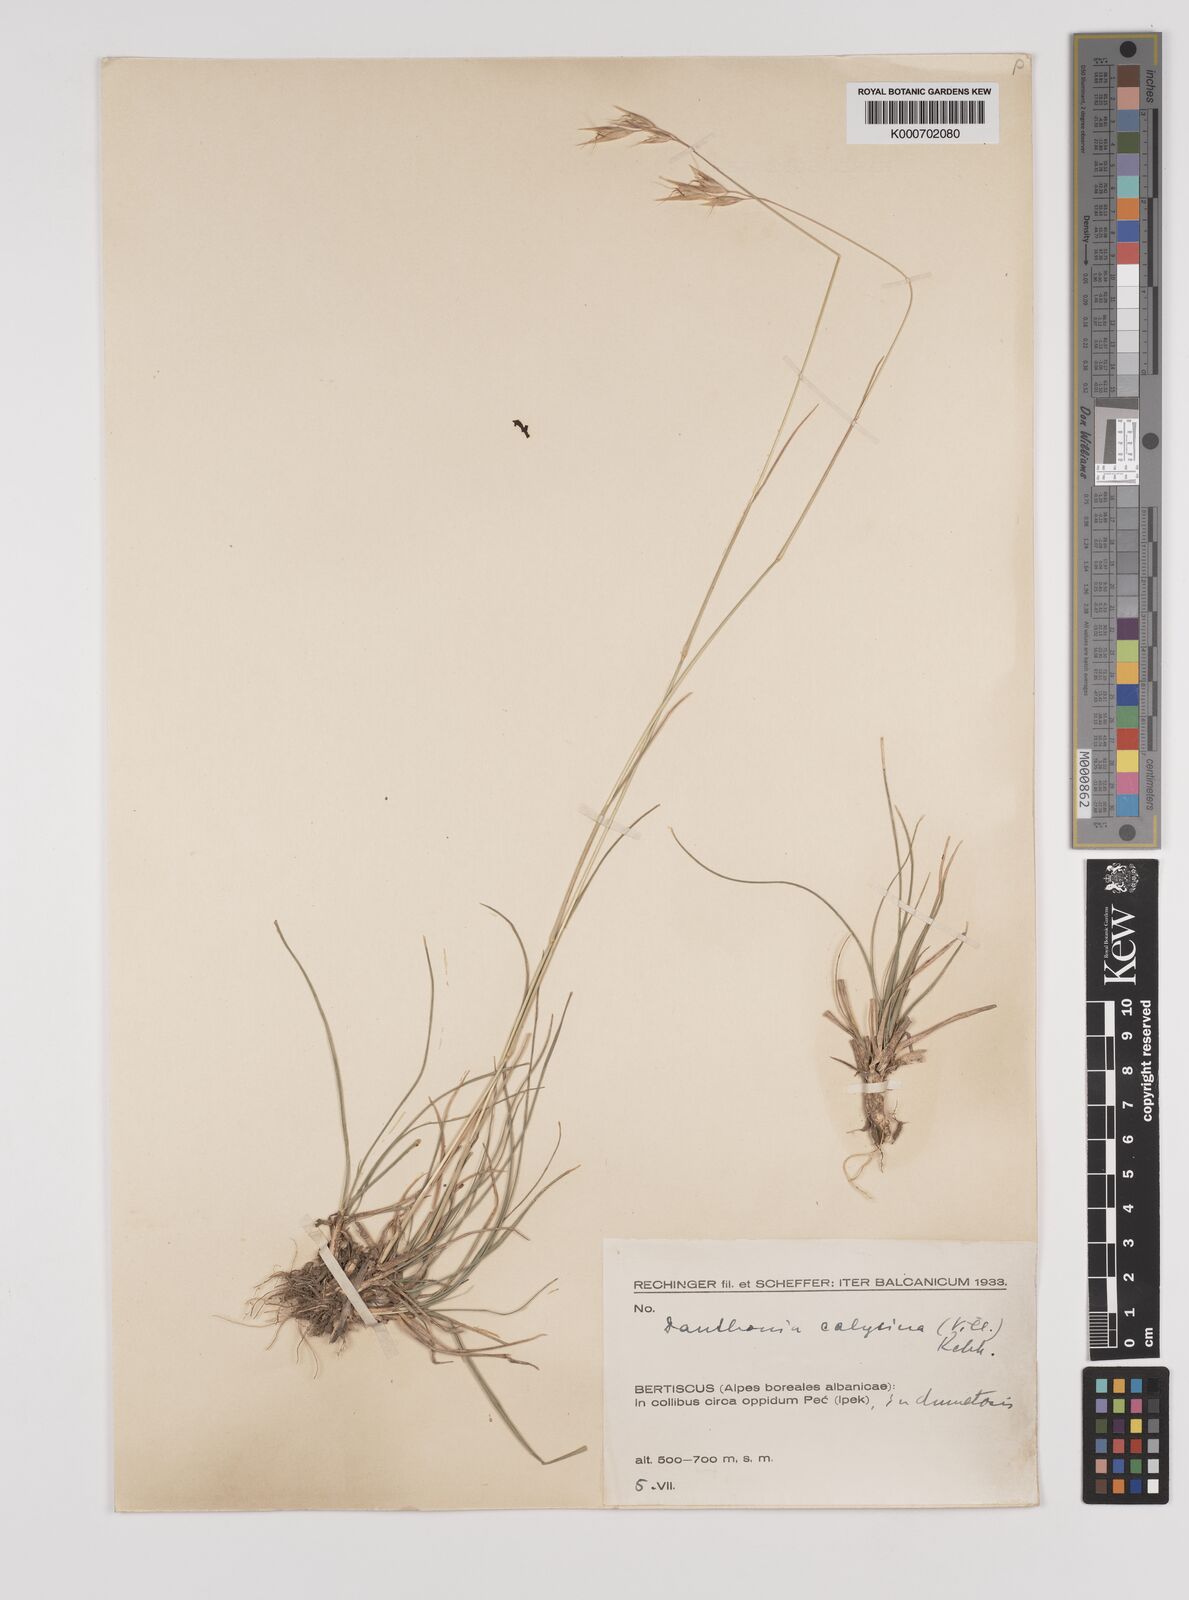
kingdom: Plantae
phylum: Tracheophyta
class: Liliopsida
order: Poales
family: Poaceae
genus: Danthonia
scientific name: Danthonia alpina
